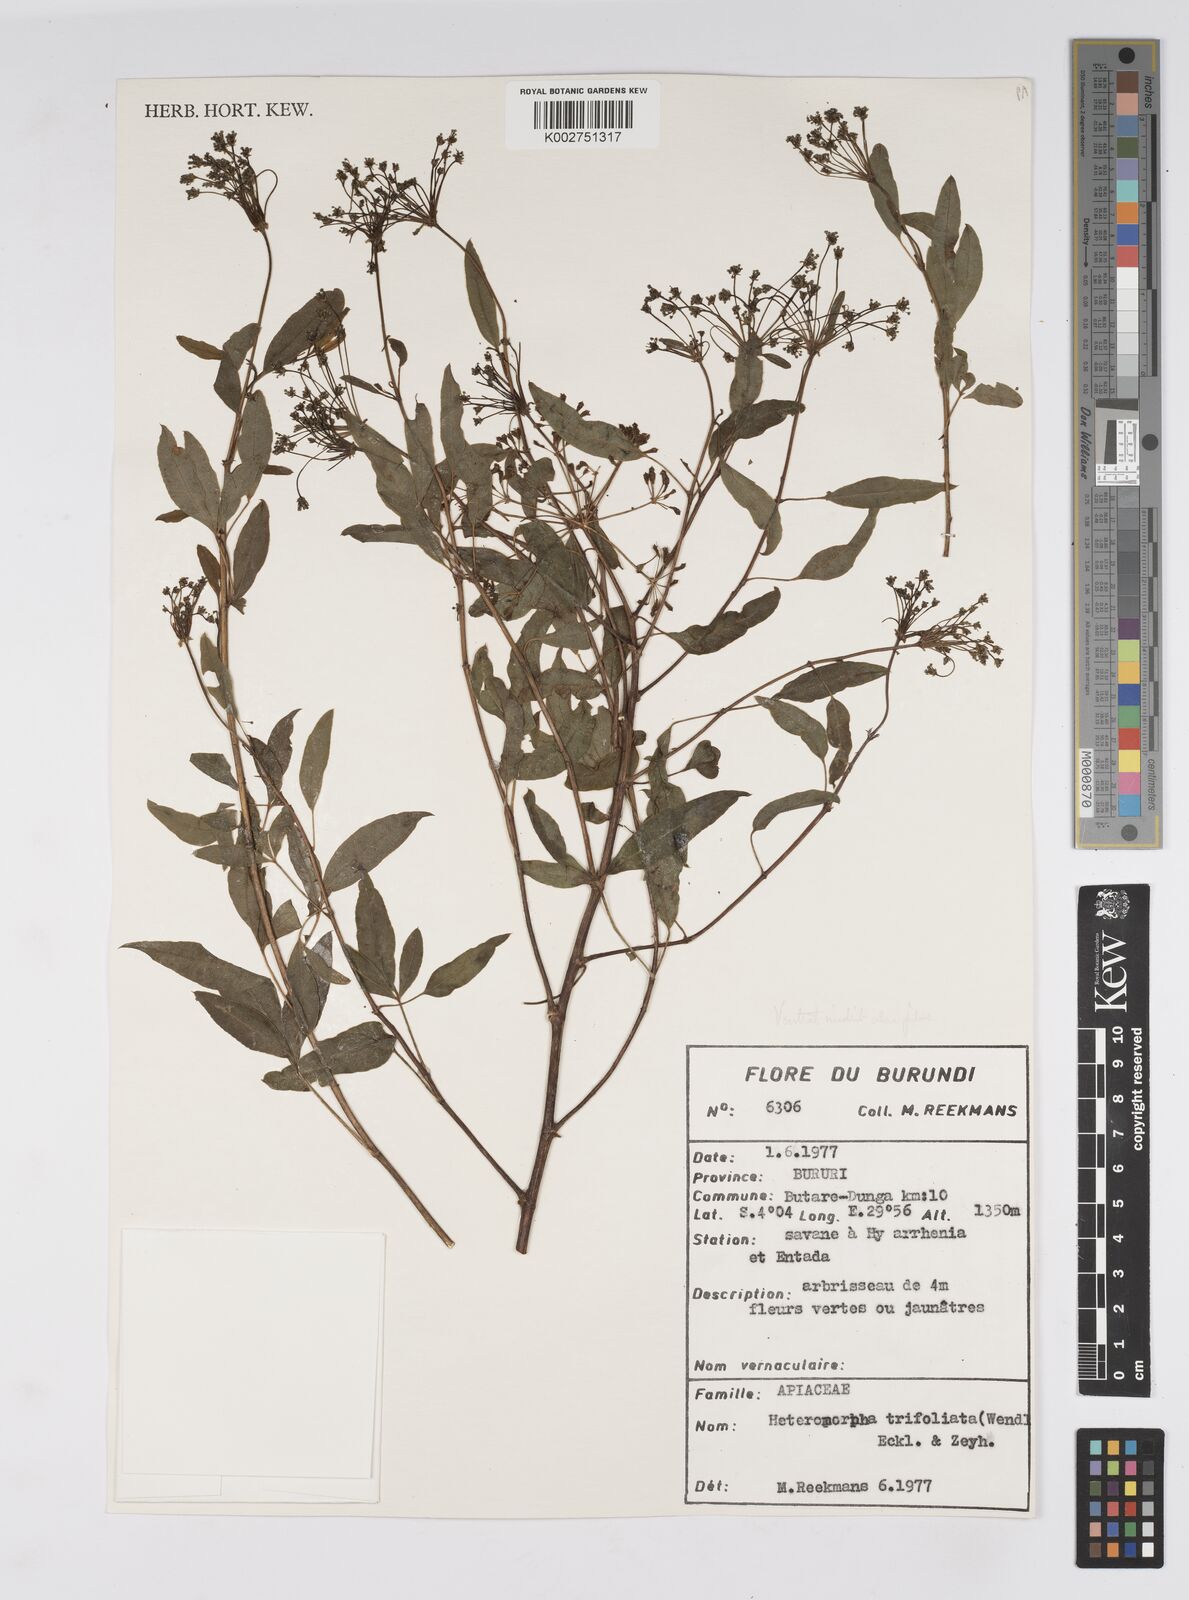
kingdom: Plantae
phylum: Tracheophyta
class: Magnoliopsida
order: Apiales
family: Apiaceae
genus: Heteromorpha
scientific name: Heteromorpha arborescens
